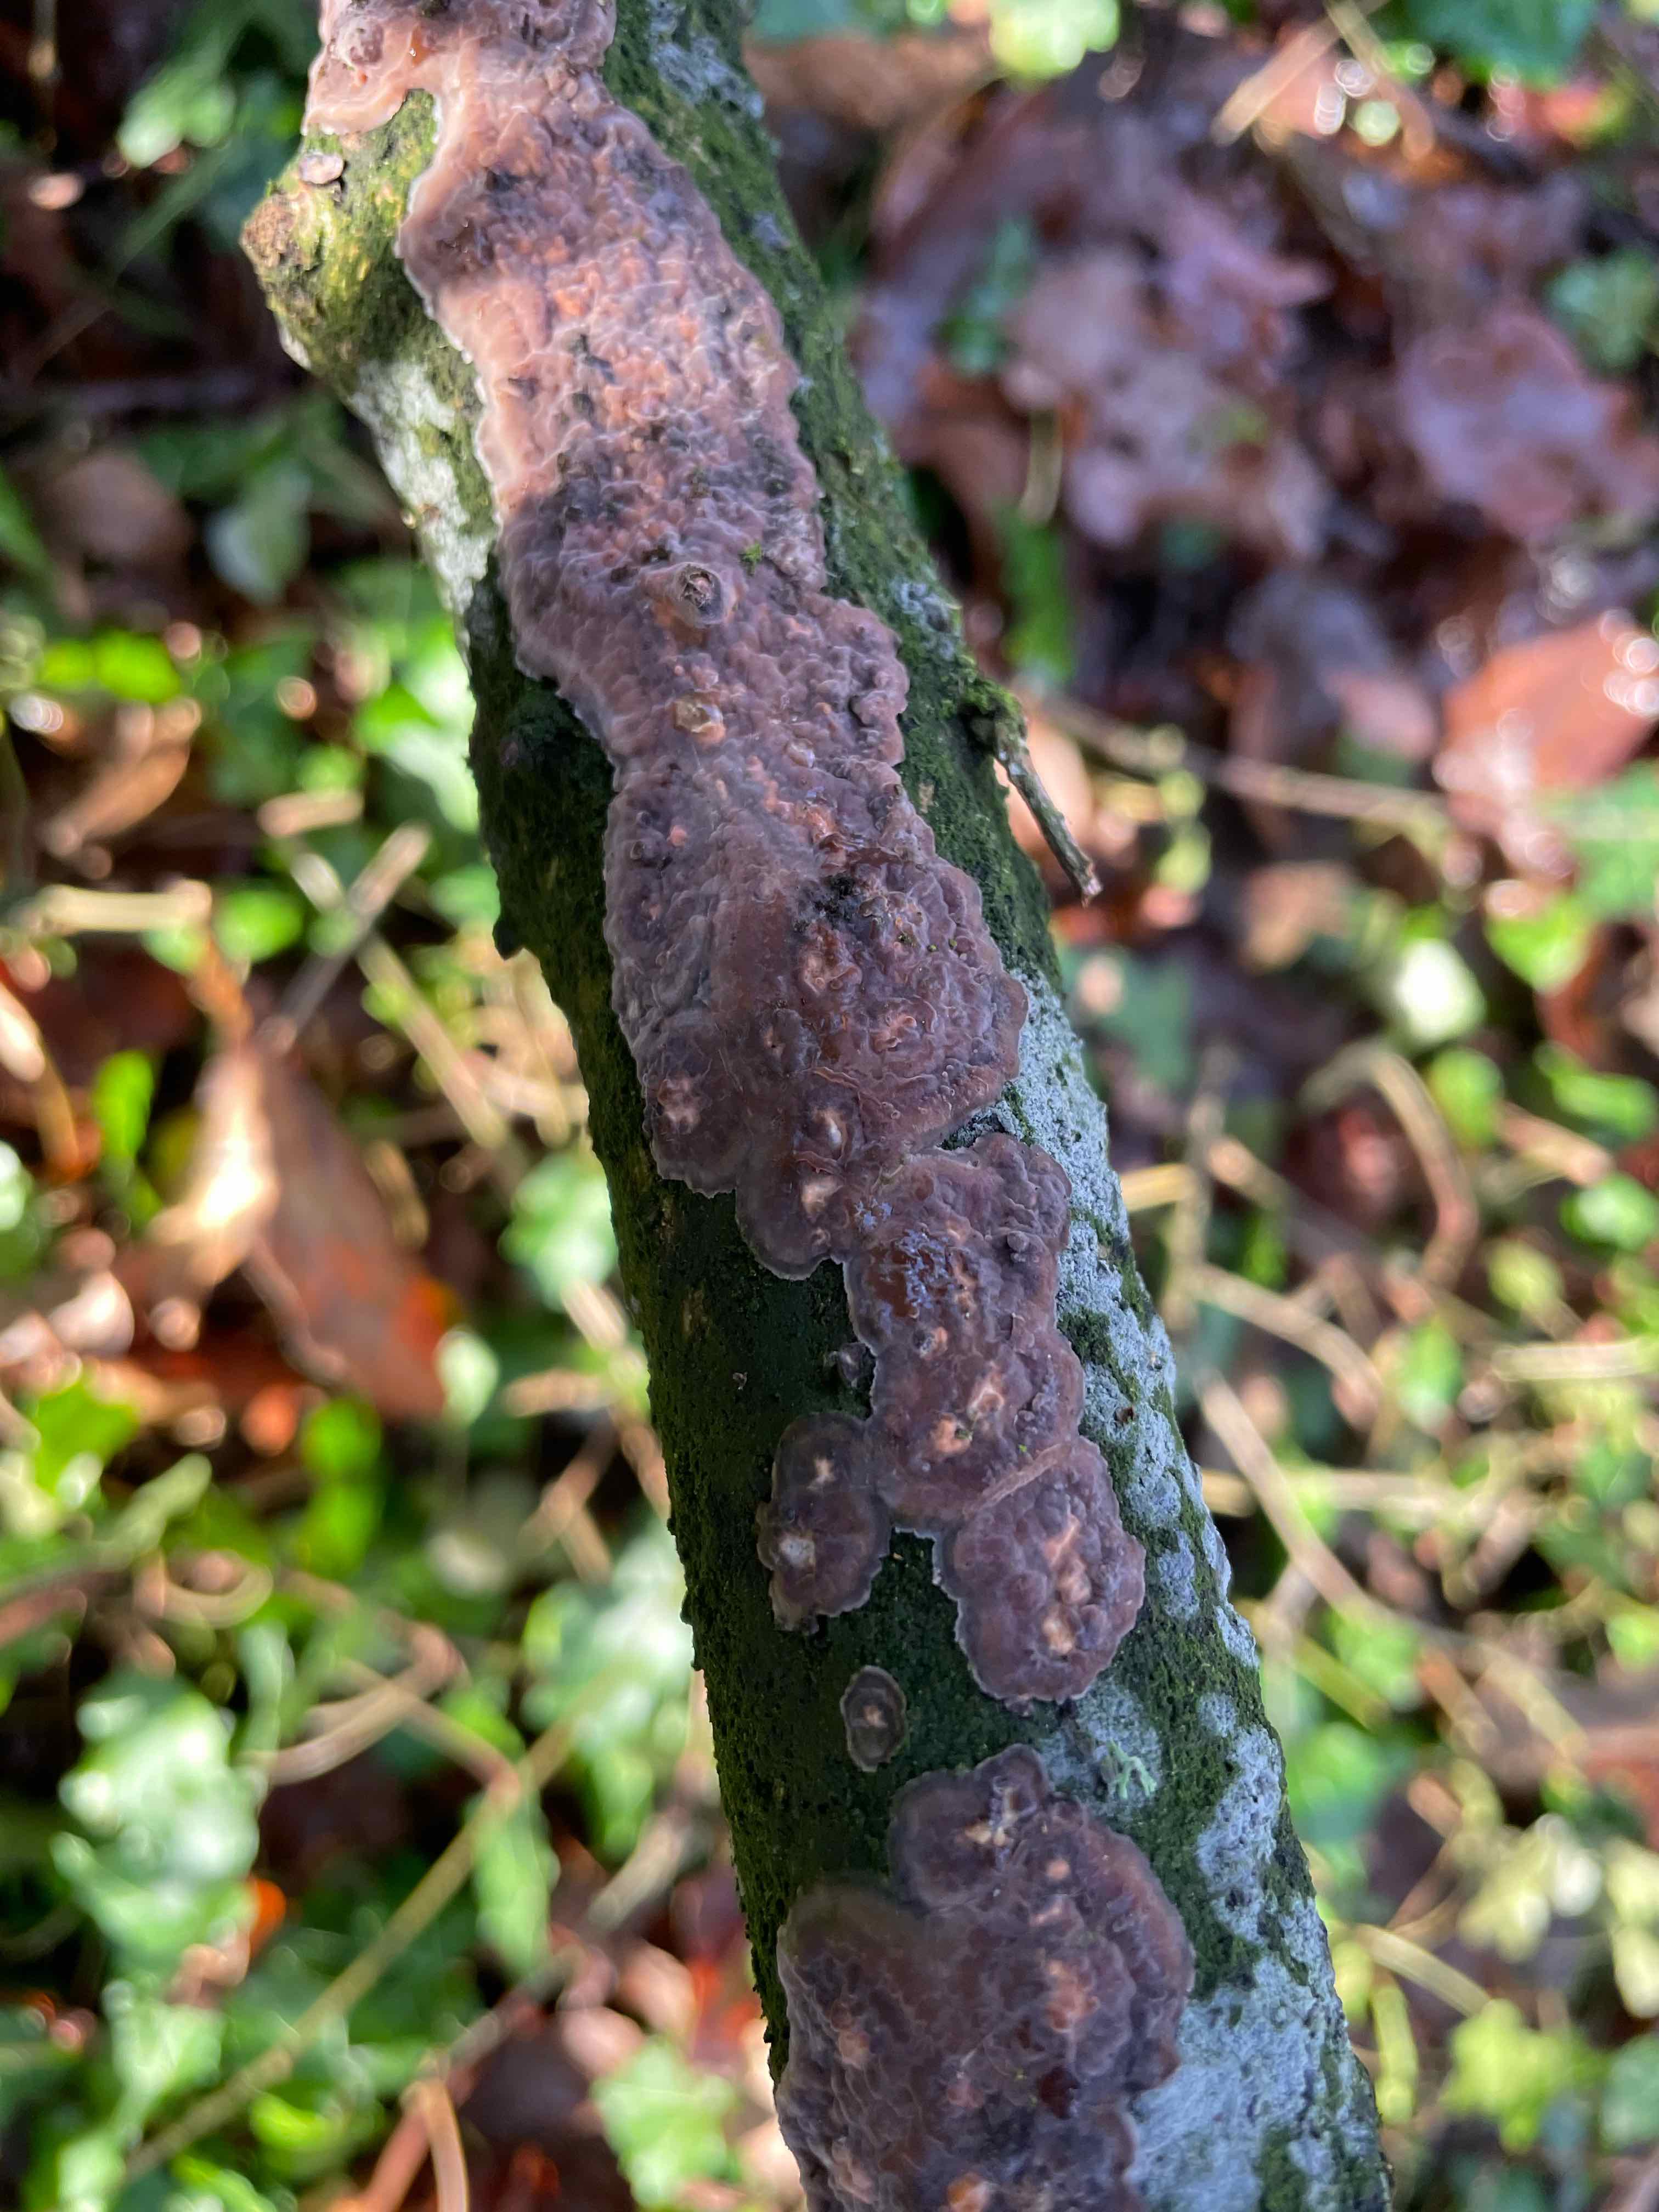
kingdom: Fungi
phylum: Basidiomycota
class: Agaricomycetes
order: Russulales
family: Peniophoraceae
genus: Peniophora
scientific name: Peniophora quercina
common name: ege-voksskind
